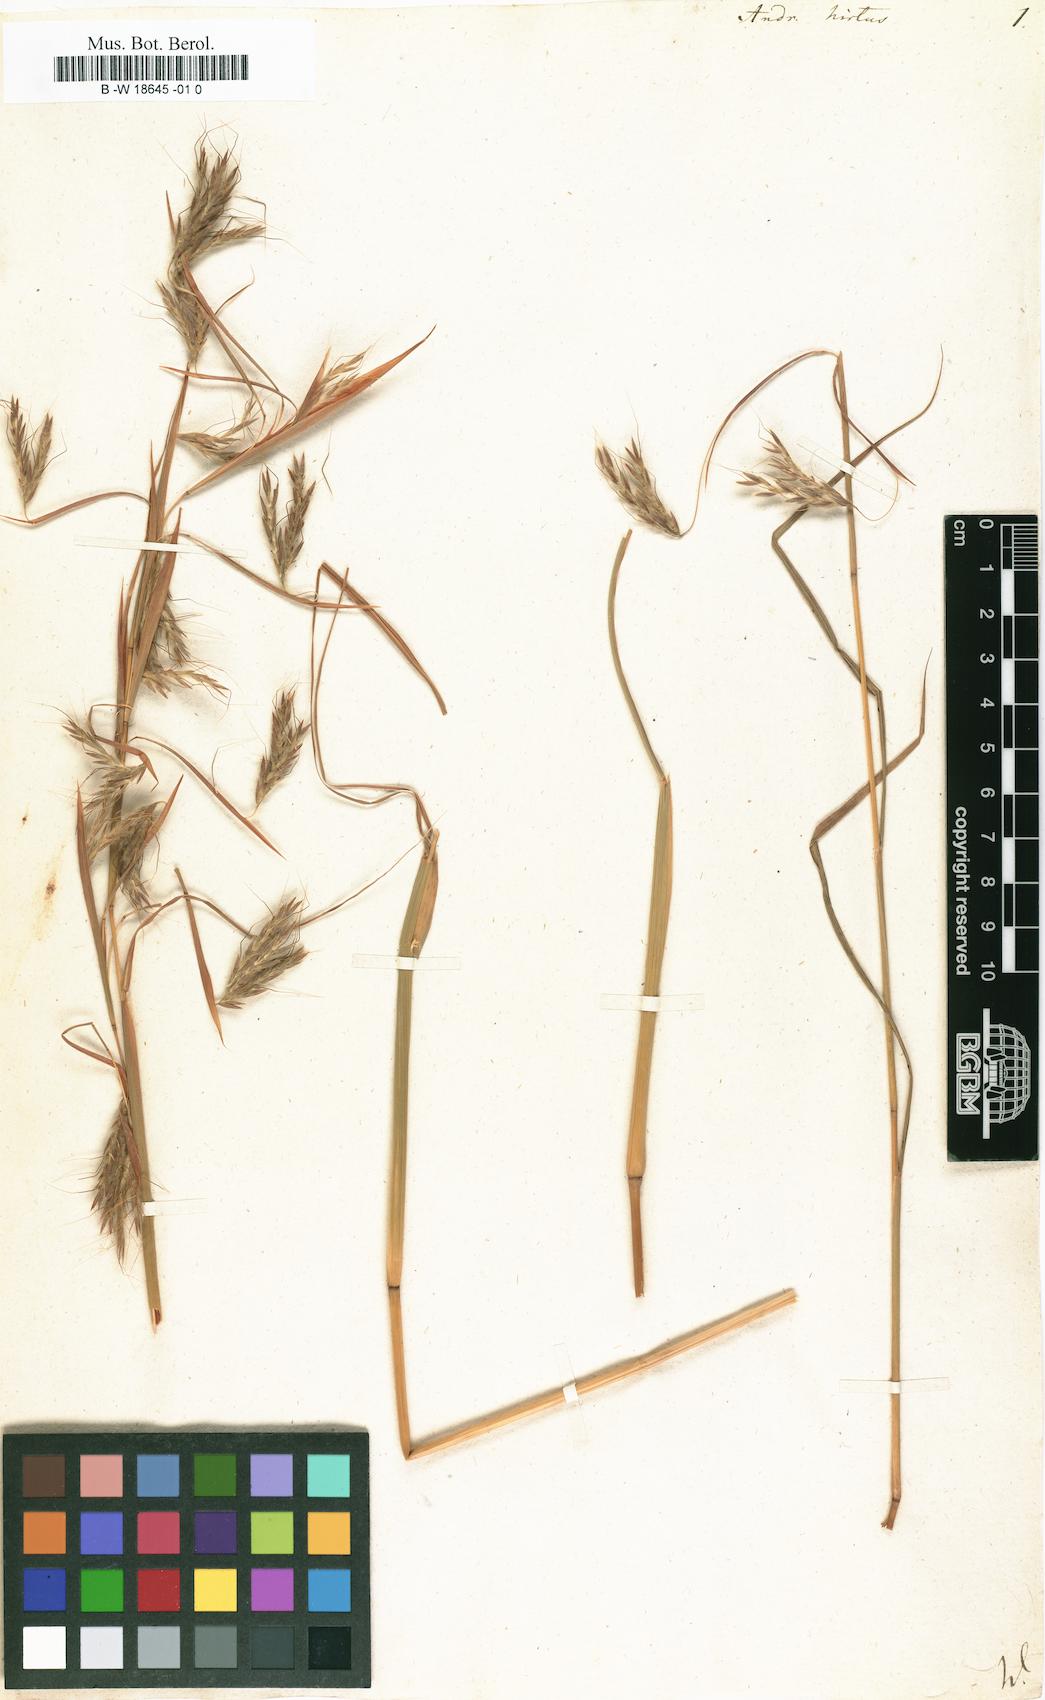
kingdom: Plantae
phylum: Tracheophyta
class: Liliopsida
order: Poales
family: Poaceae
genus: Hyparrhenia
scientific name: Hyparrhenia hirta
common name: Thatching grass
